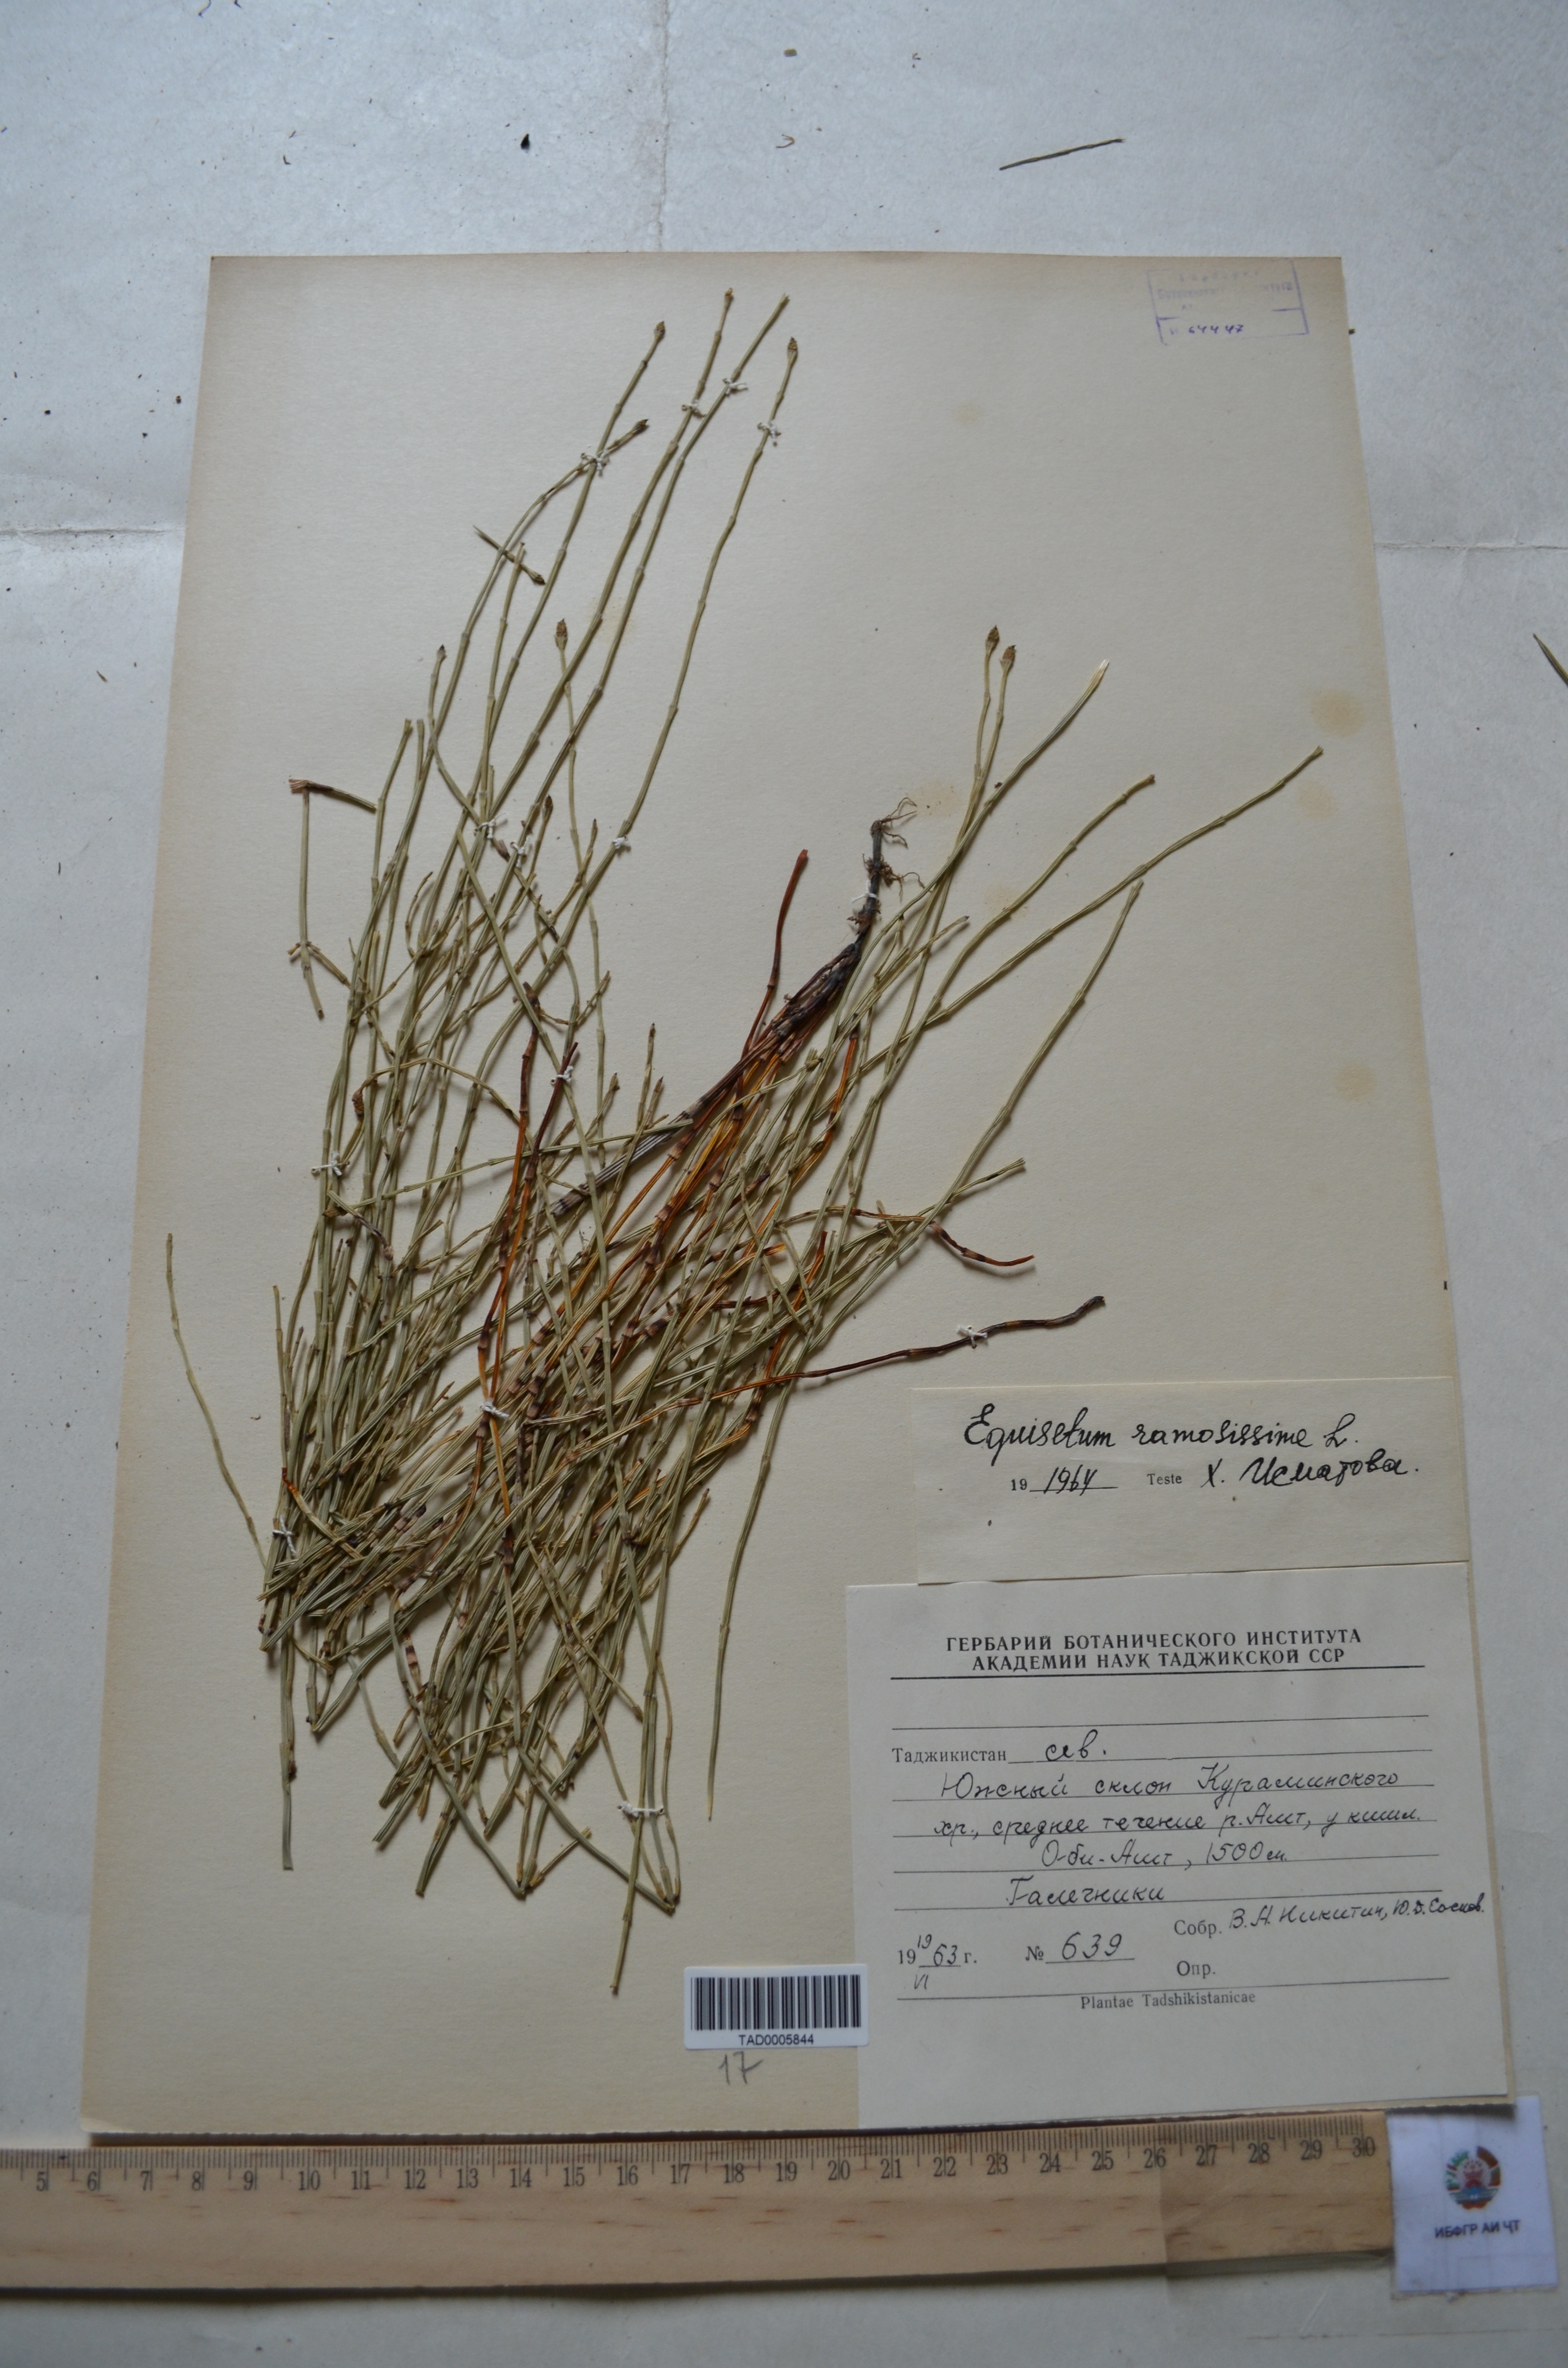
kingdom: Plantae
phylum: Tracheophyta
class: Polypodiopsida
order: Equisetales
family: Equisetaceae
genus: Equisetum
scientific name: Equisetum ramosissimum
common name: Branched horsetail
